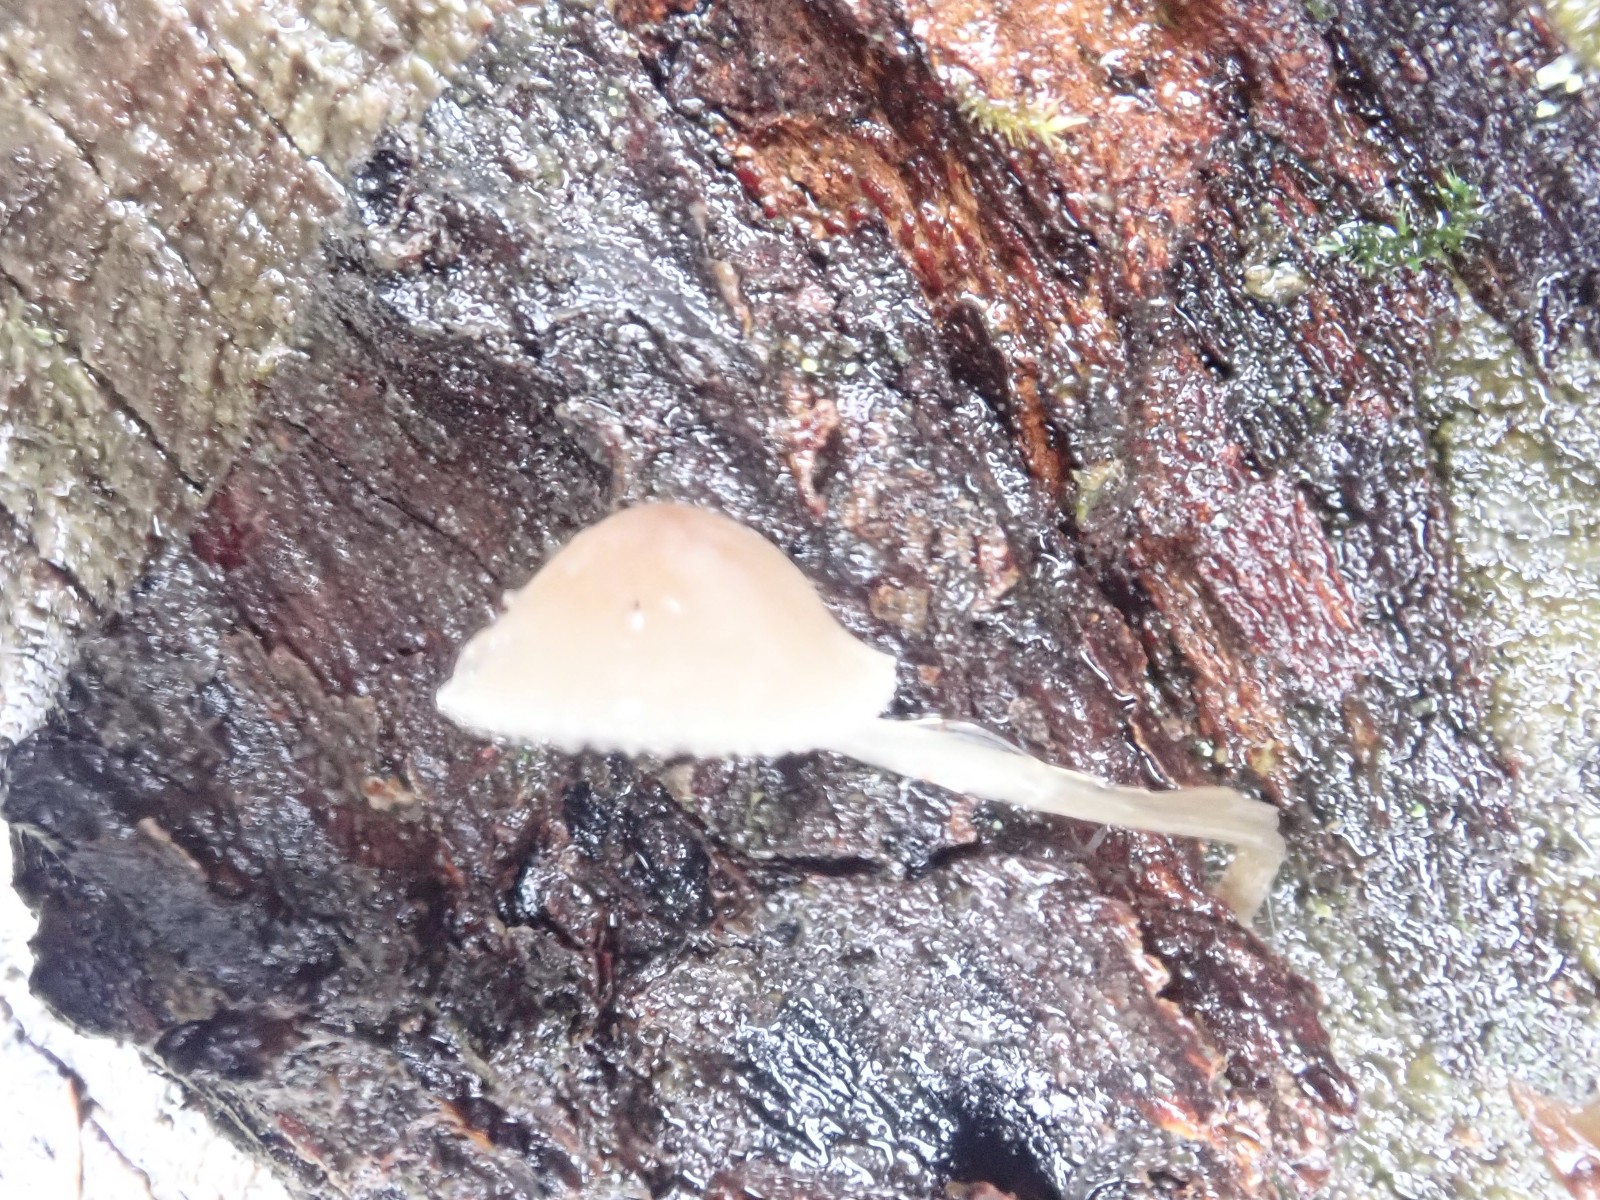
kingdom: Fungi
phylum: Basidiomycota
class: Agaricomycetes
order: Agaricales
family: Mycenaceae
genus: Mycena
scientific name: Mycena metata
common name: rødlig huesvamp
